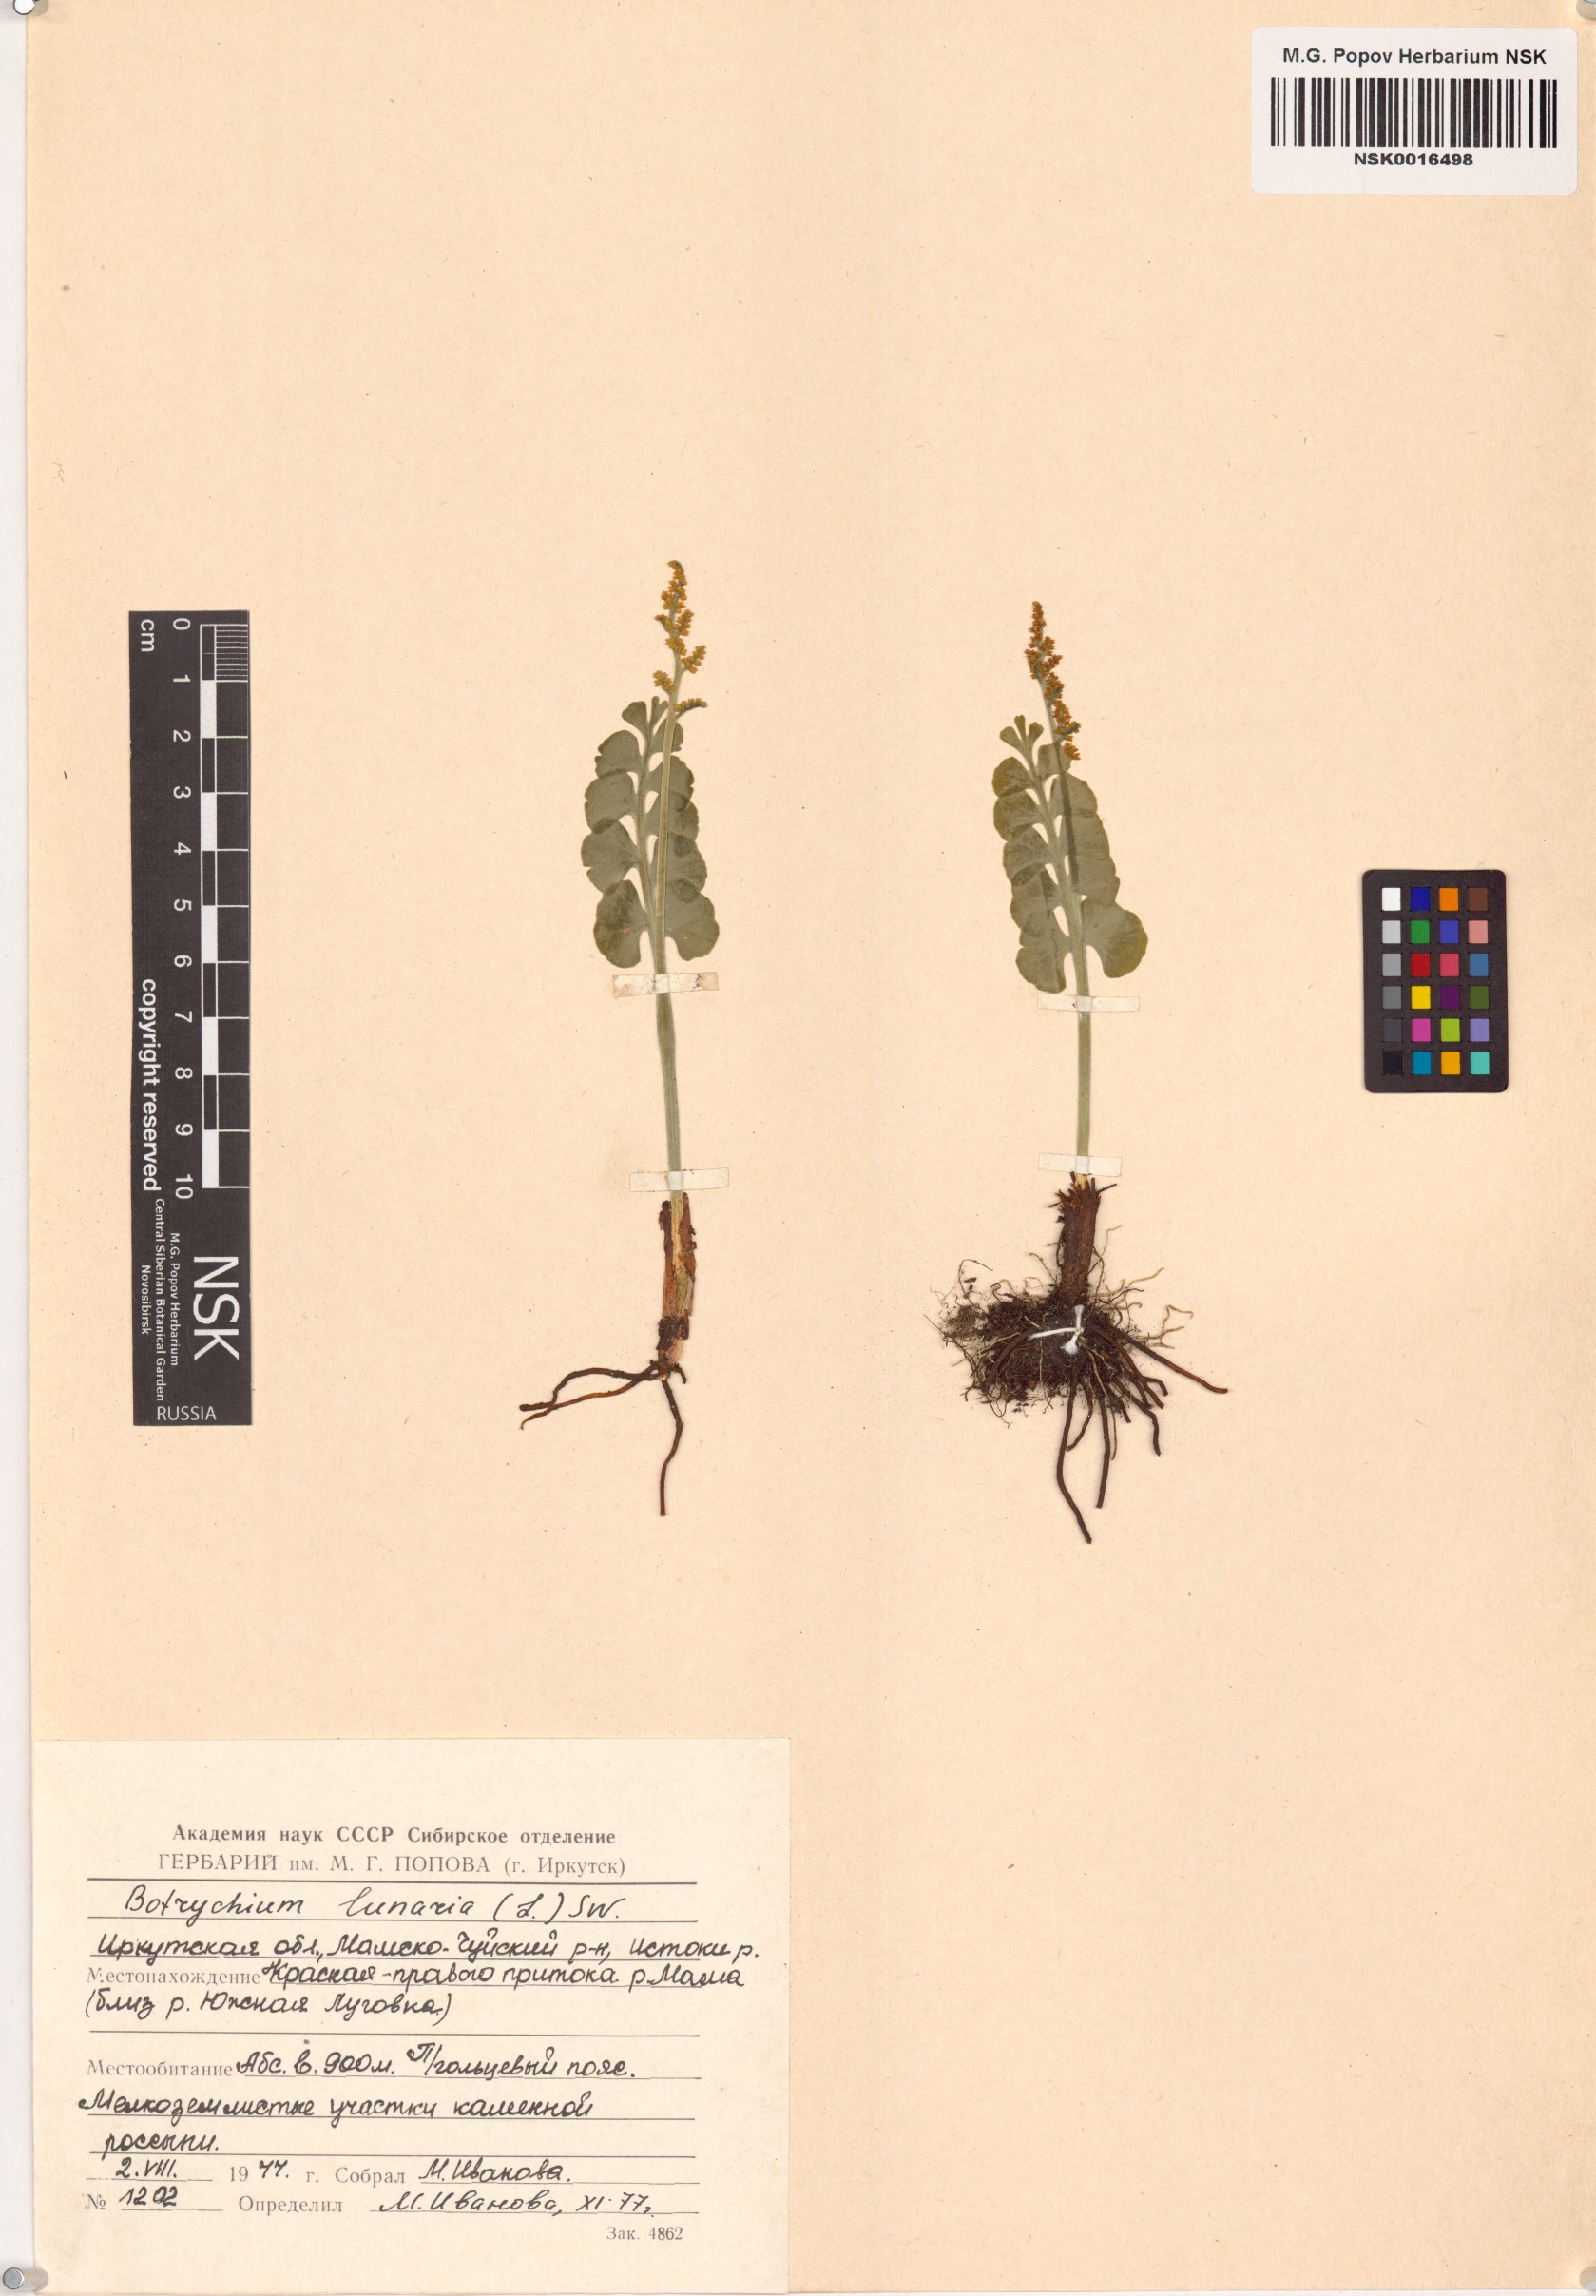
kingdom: Plantae
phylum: Tracheophyta
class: Polypodiopsida
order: Ophioglossales
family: Ophioglossaceae
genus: Botrychium
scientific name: Botrychium lunaria
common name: Moonwort
